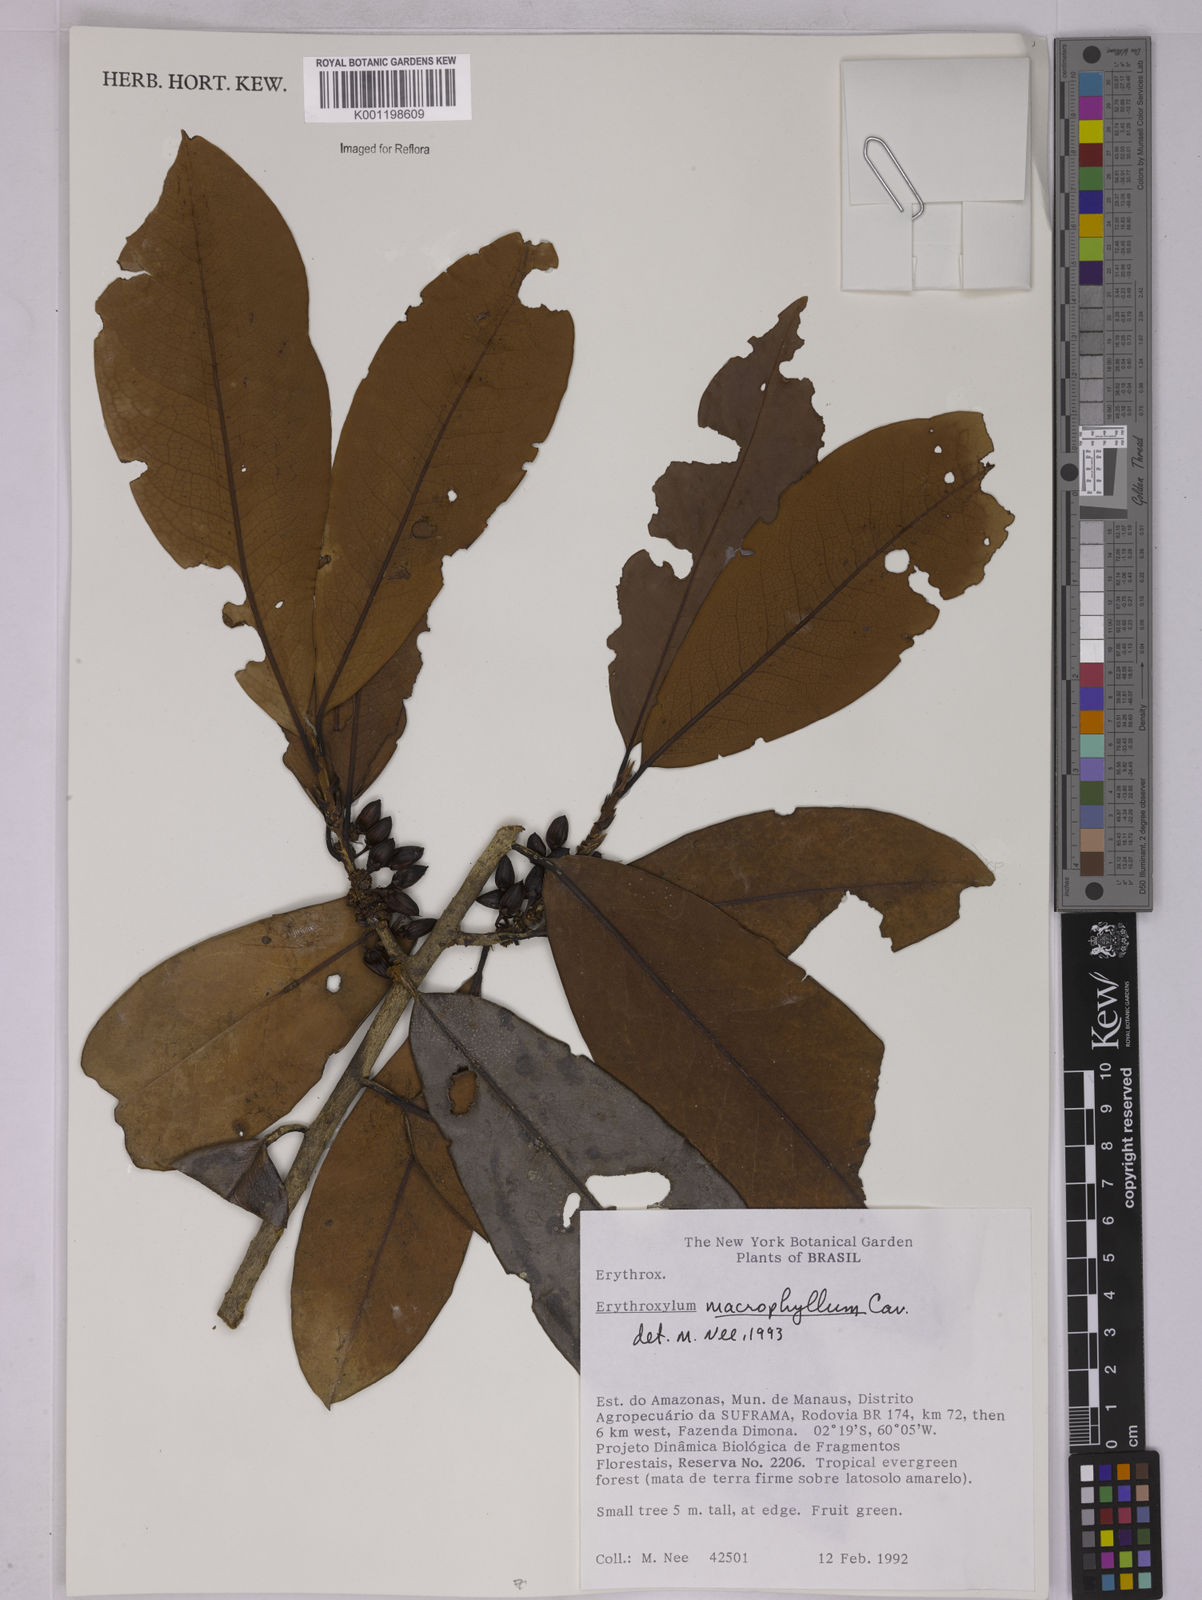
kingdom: Plantae
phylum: Tracheophyta
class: Magnoliopsida
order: Malpighiales
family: Erythroxylaceae
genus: Erythroxylum
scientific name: Erythroxylum macrophyllum
